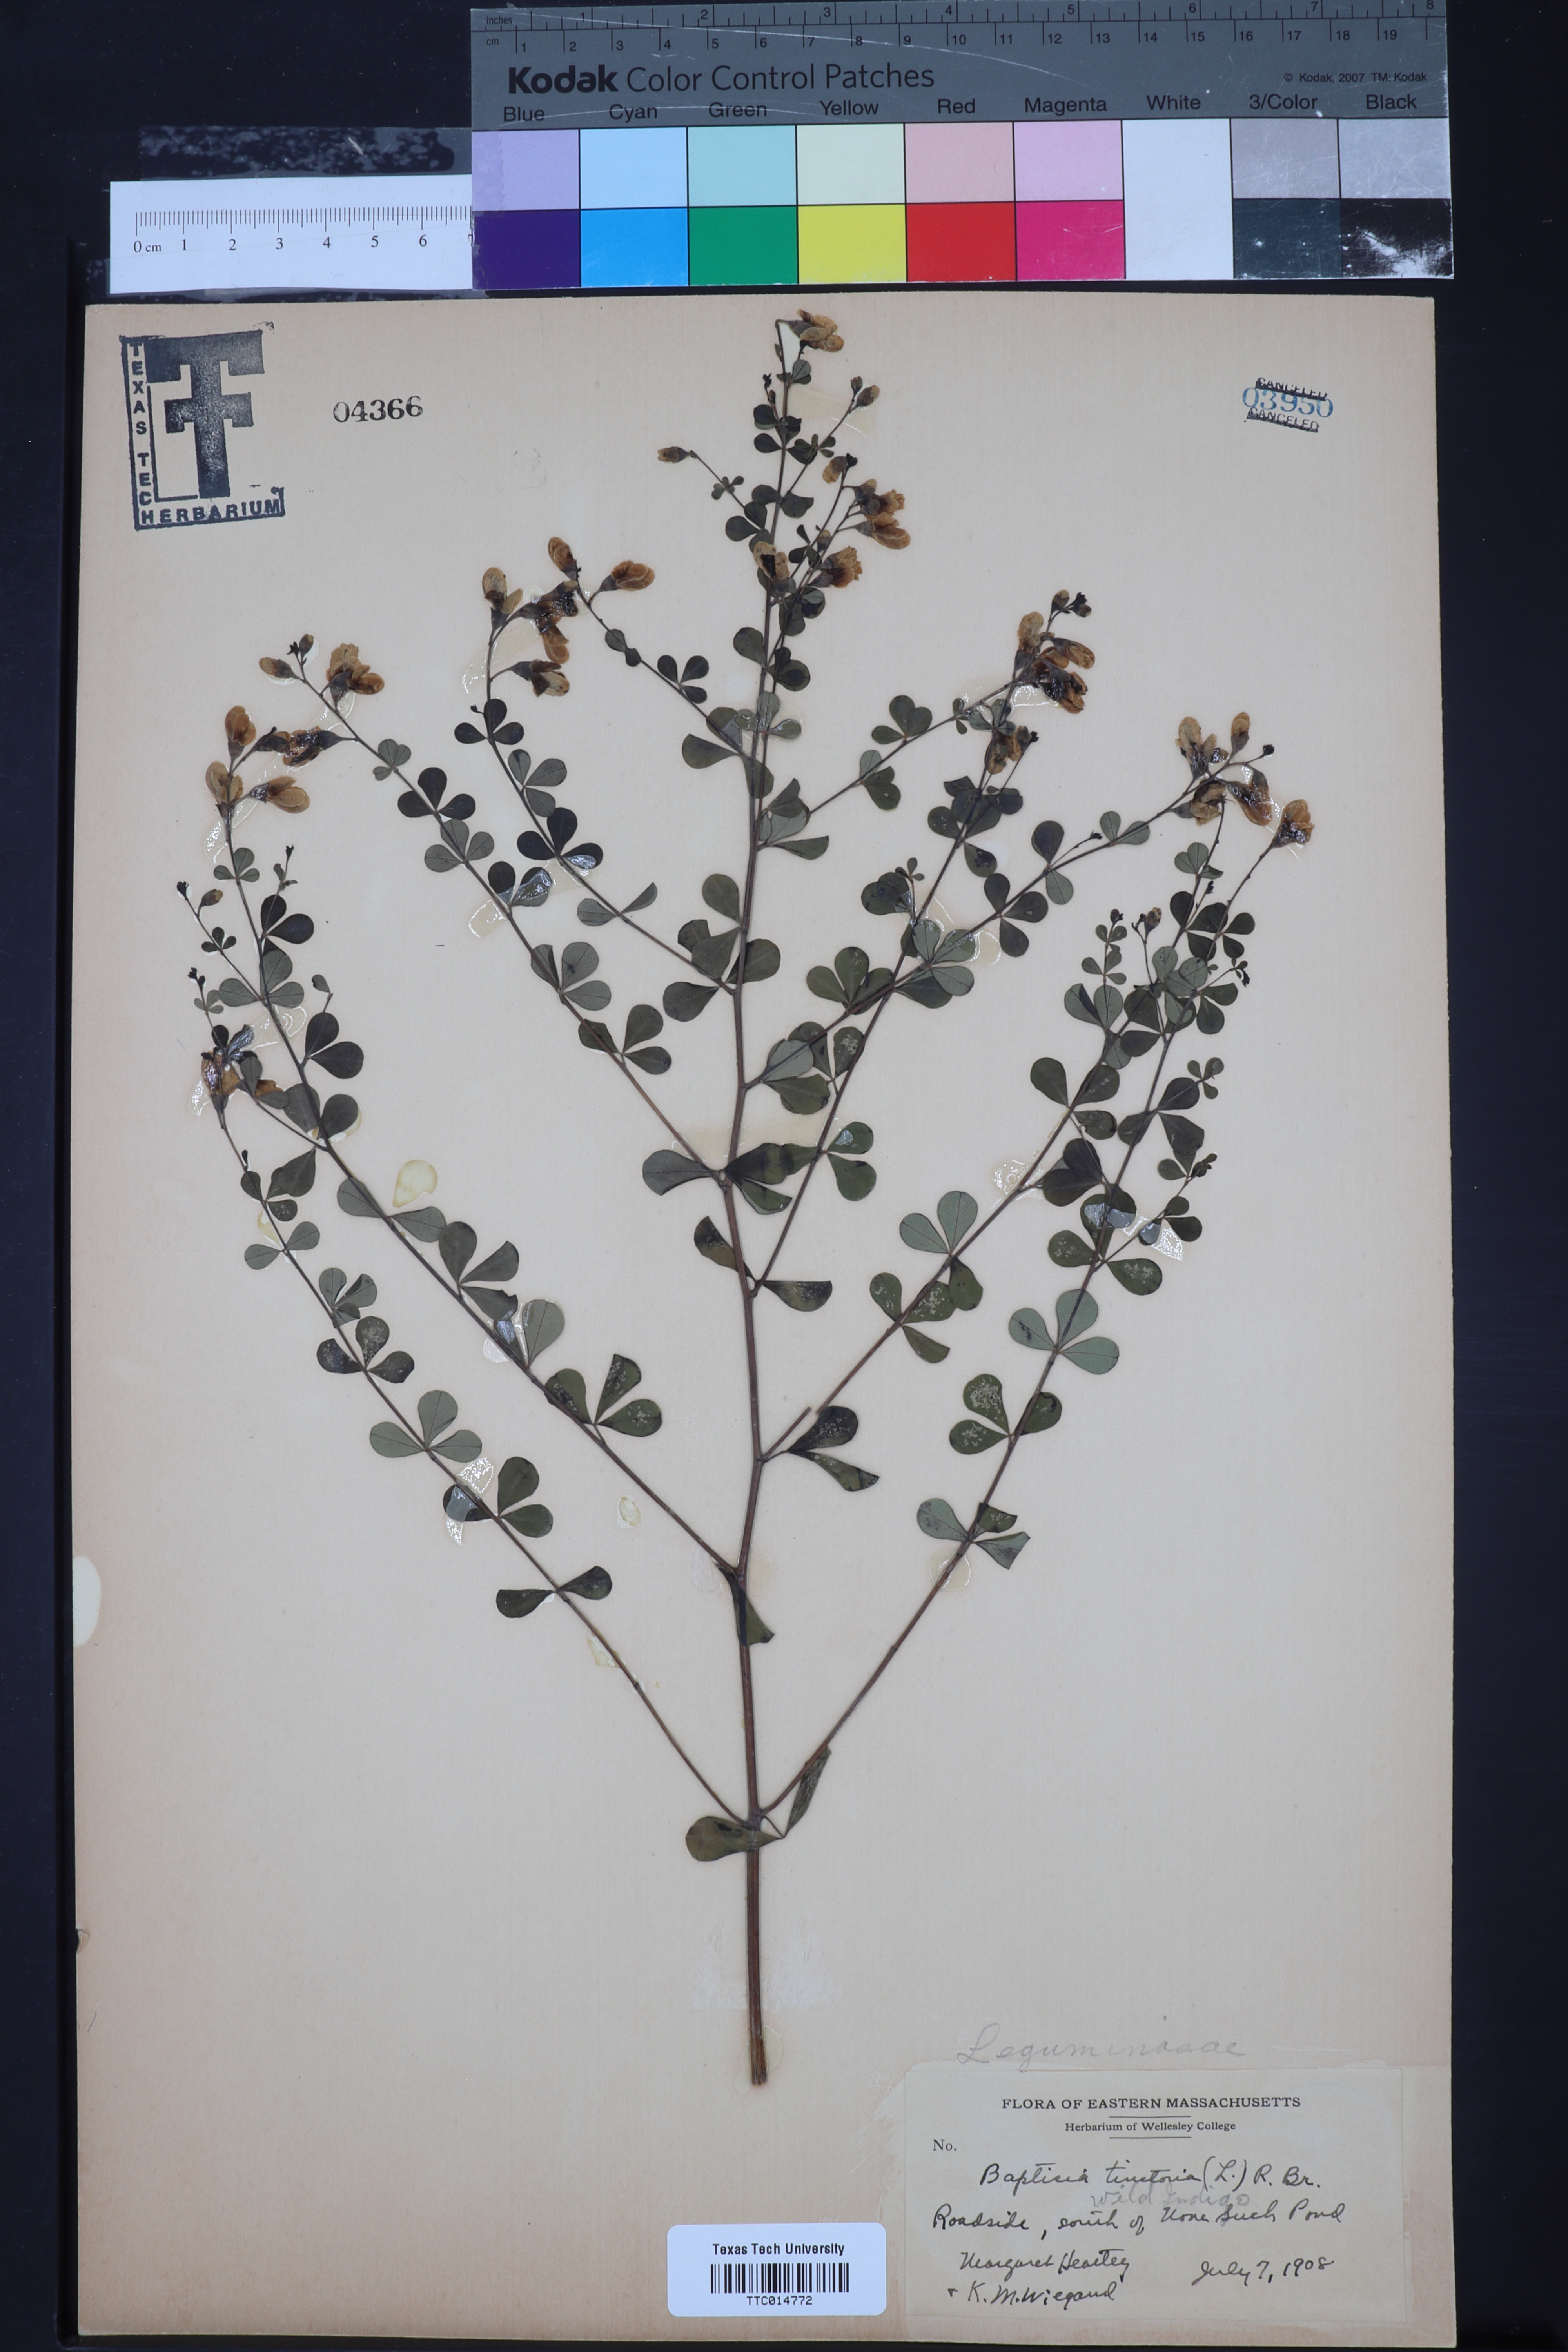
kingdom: Plantae
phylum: Tracheophyta
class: Magnoliopsida
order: Fabales
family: Fabaceae
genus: Baptisia
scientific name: Baptisia tinctoria
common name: Wild indigo
